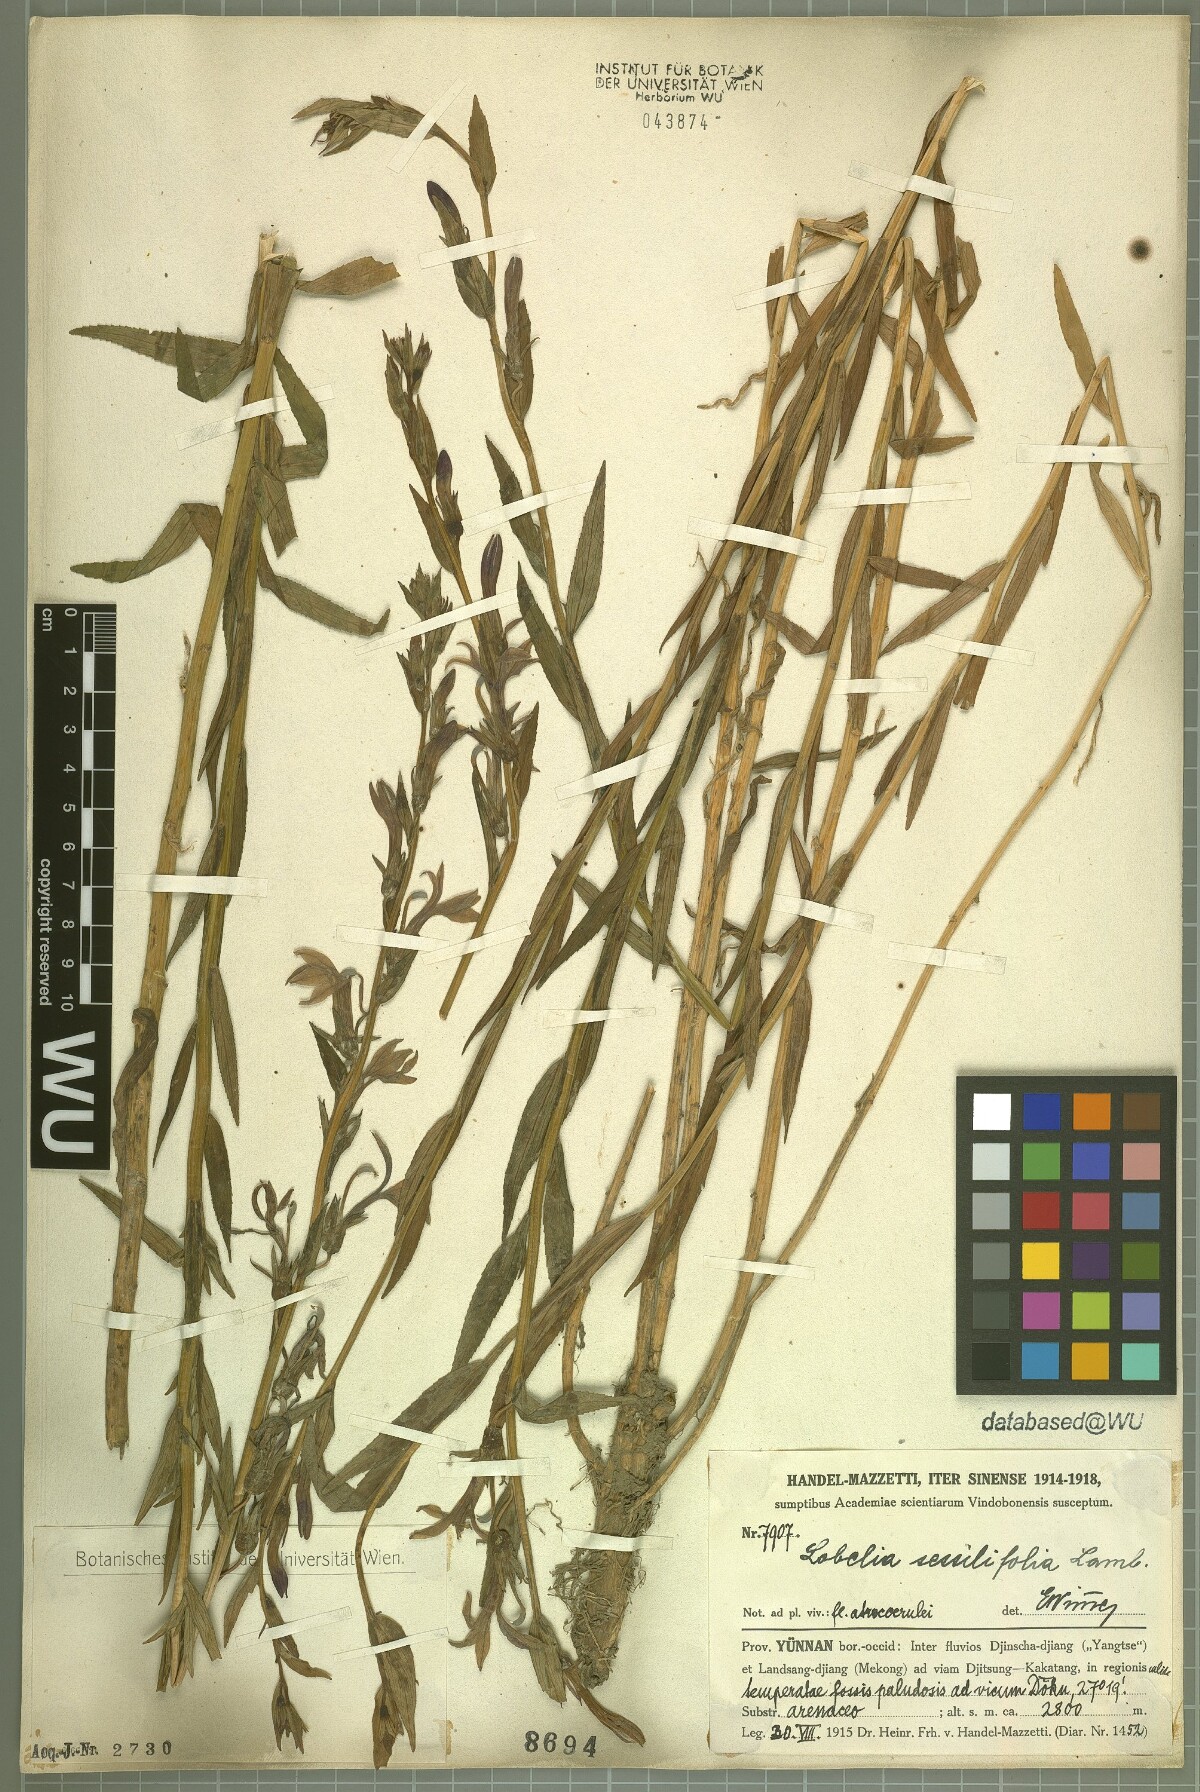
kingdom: Plantae
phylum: Tracheophyta
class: Magnoliopsida
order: Asterales
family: Campanulaceae
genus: Lobelia
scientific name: Lobelia sessilifolia
